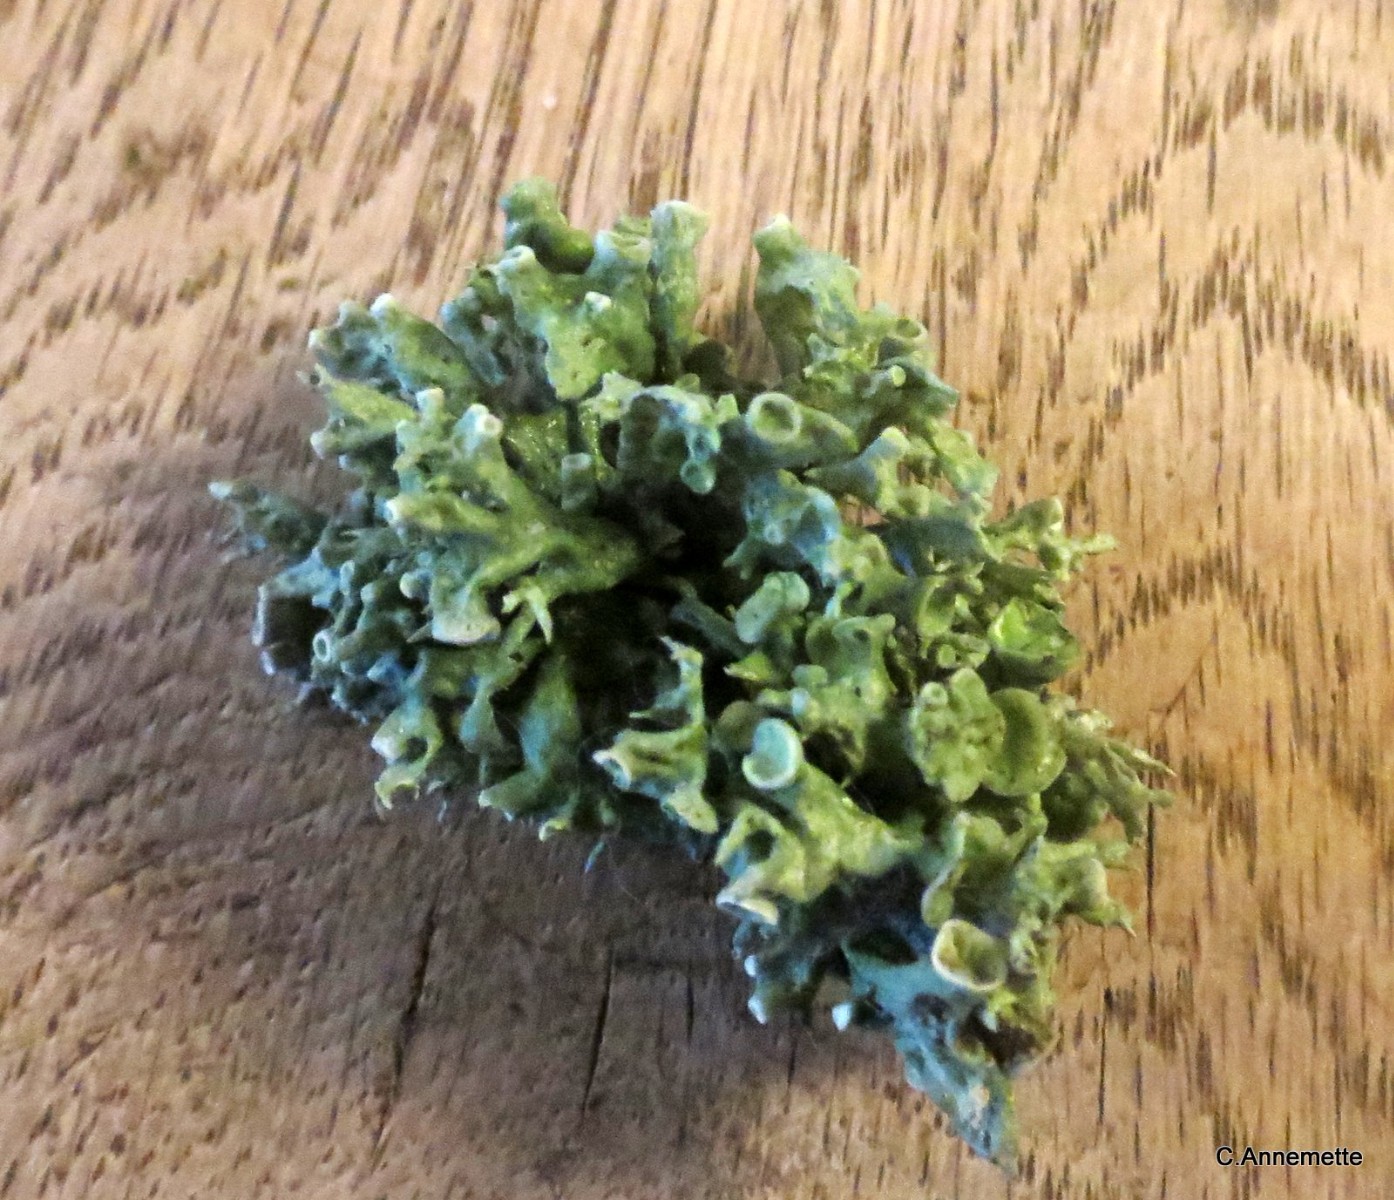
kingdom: Fungi
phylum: Ascomycota
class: Lecanoromycetes
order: Lecanorales
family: Ramalinaceae
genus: Ramalina
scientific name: Ramalina fastigiata
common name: tue-grenlav
